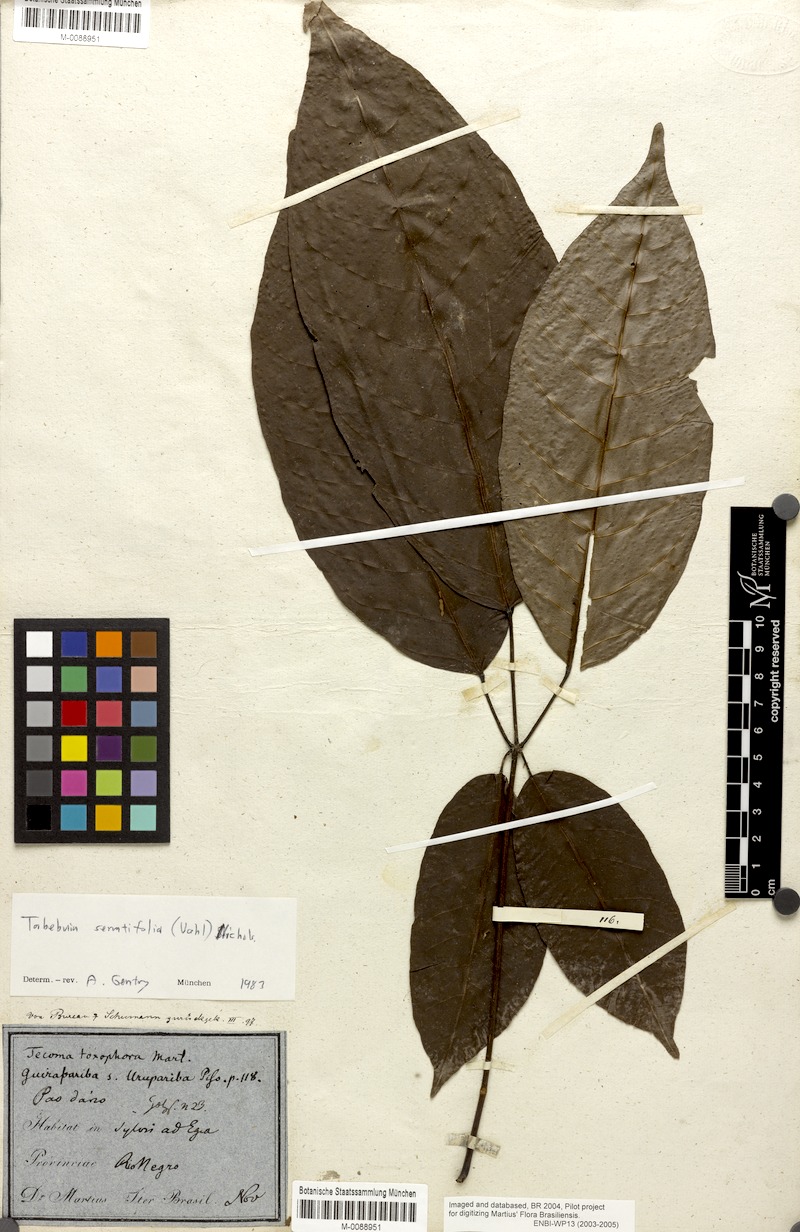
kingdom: Plantae
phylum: Tracheophyta
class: Magnoliopsida
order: Lamiales
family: Bignoniaceae
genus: Handroanthus
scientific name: Handroanthus barbatus
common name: Trumpet trees
